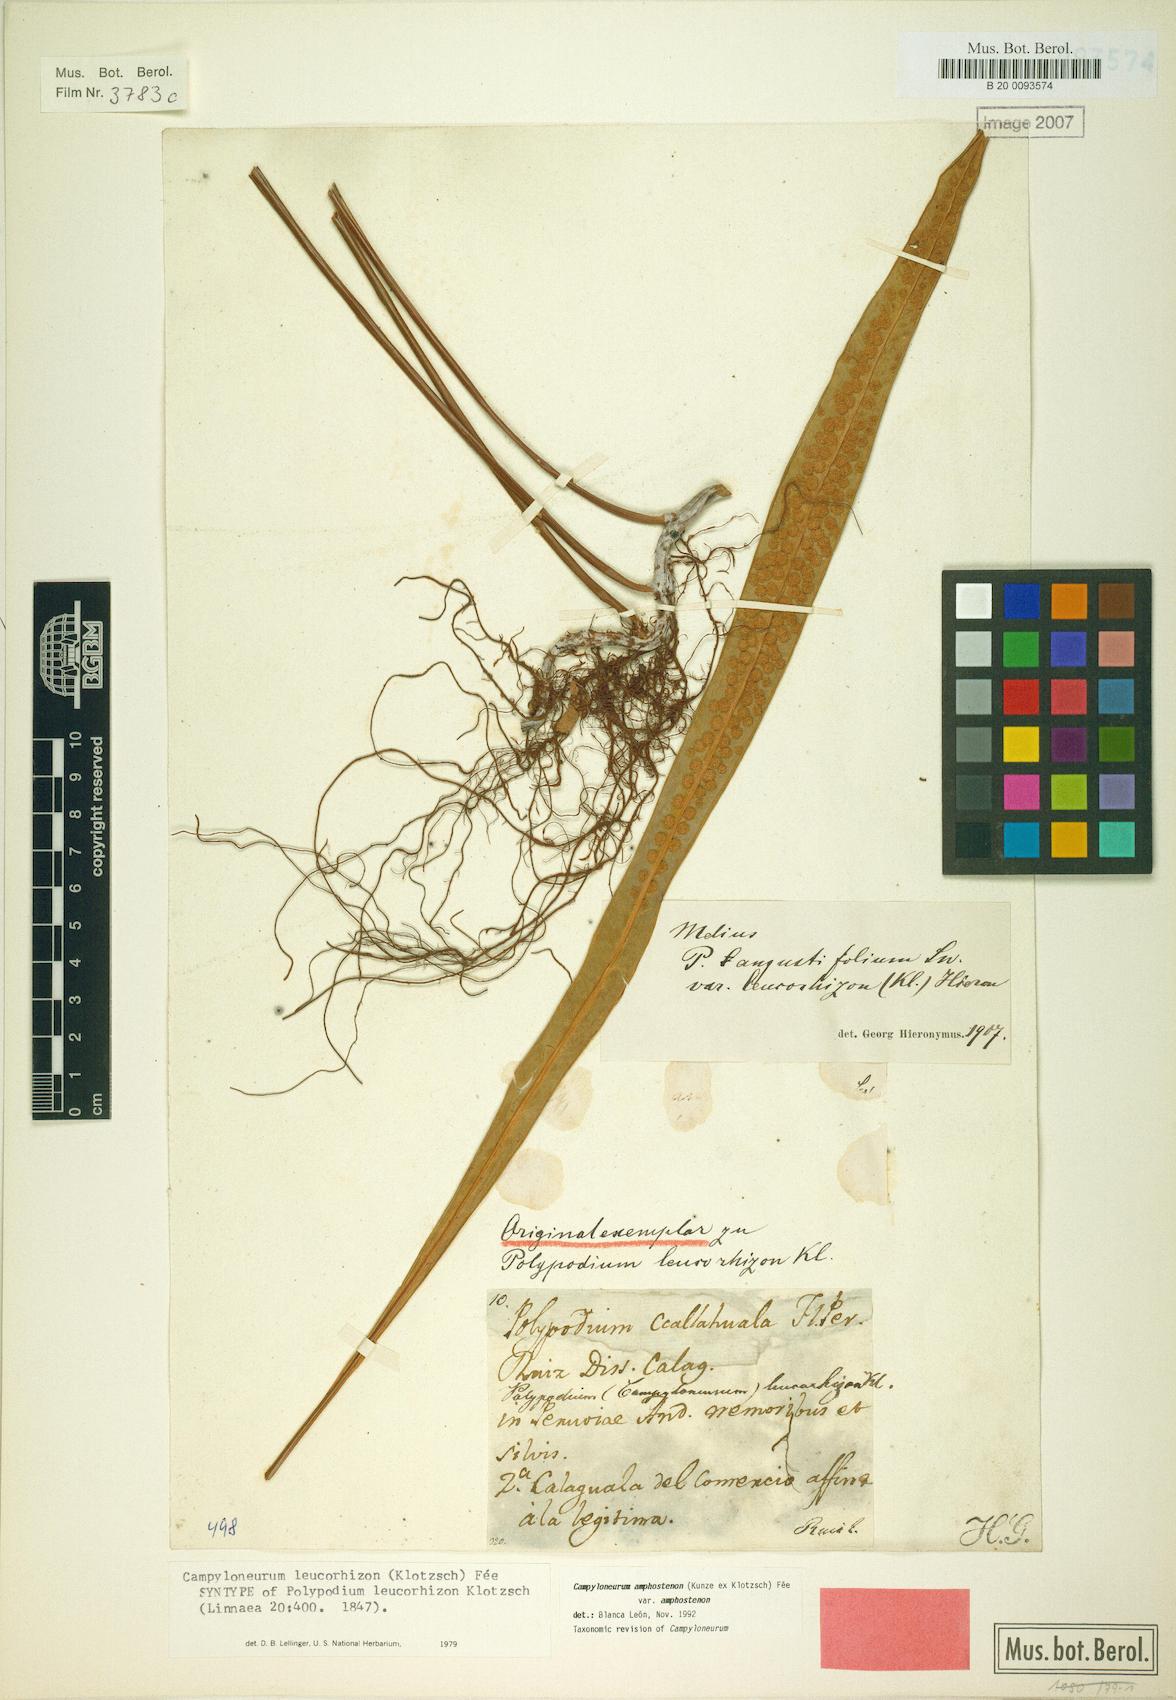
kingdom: Plantae
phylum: Tracheophyta
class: Polypodiopsida
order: Polypodiales
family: Polypodiaceae
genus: Campyloneurum
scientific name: Campyloneurum amphostenon
